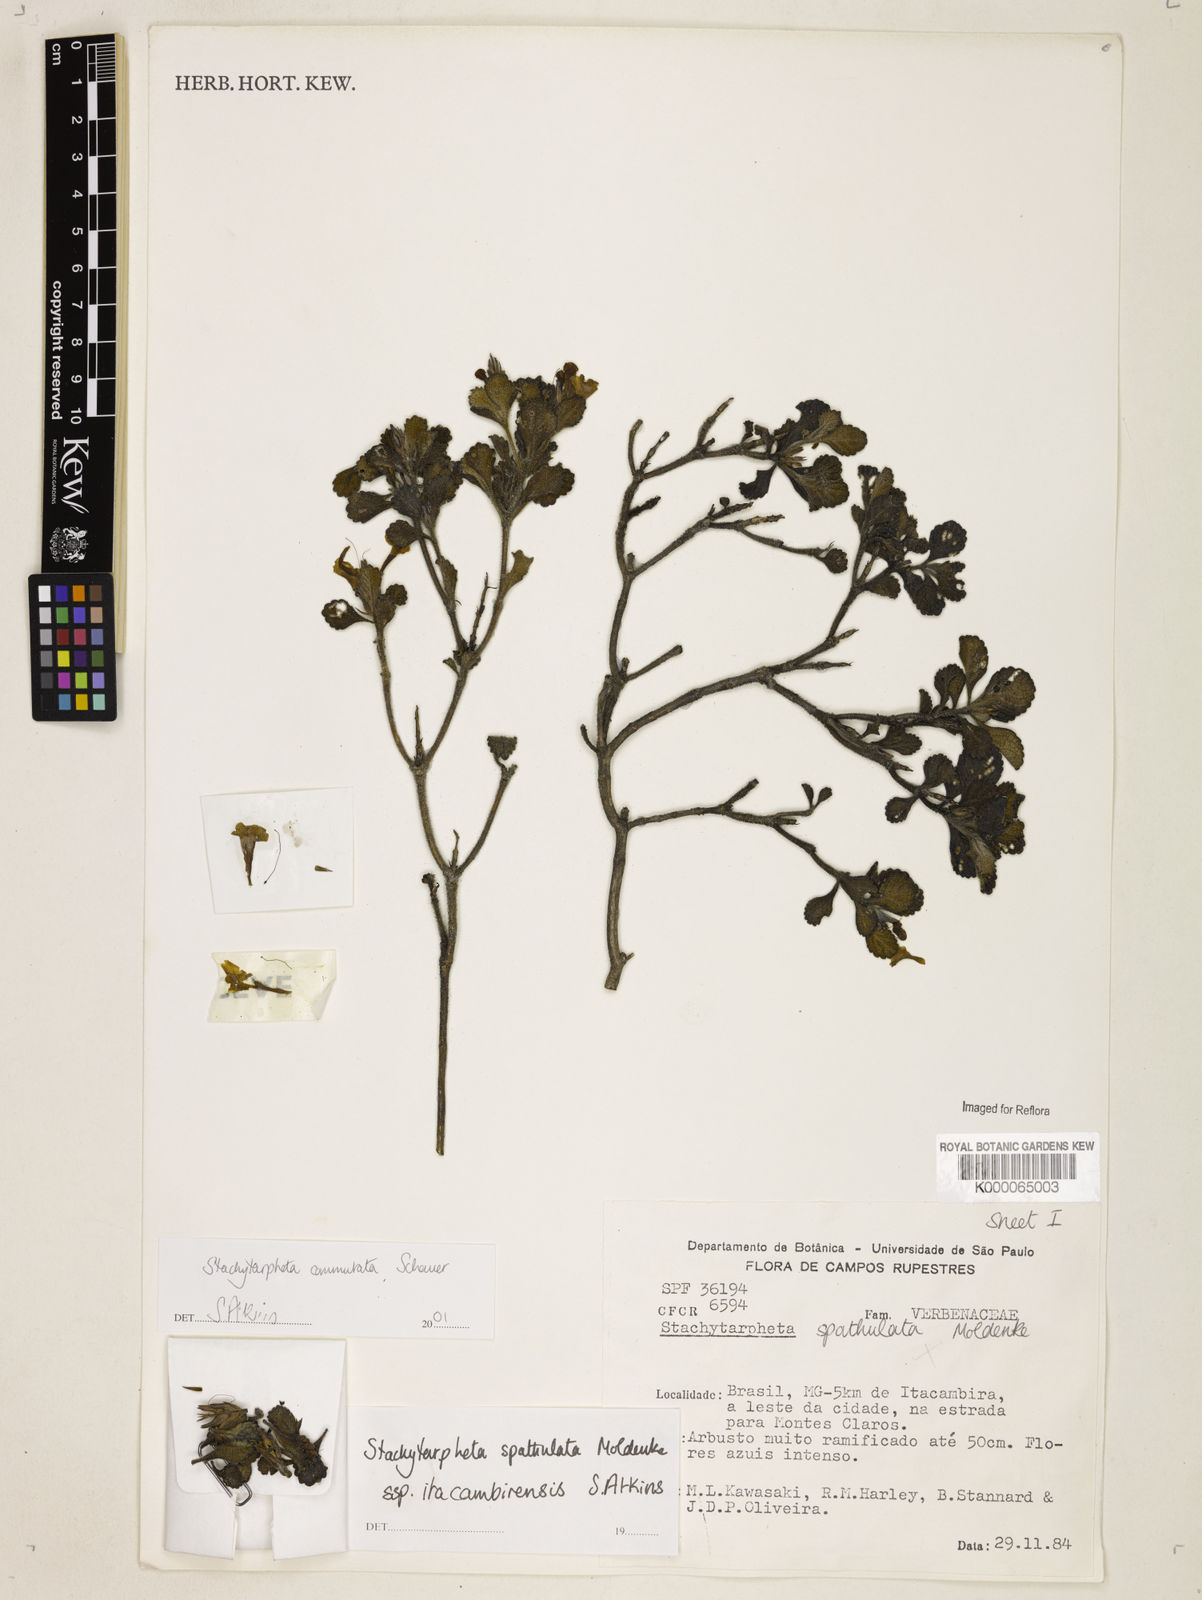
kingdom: Plantae
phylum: Tracheophyta
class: Magnoliopsida
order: Lamiales
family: Verbenaceae
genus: Stachytarpheta
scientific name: Stachytarpheta commutata
